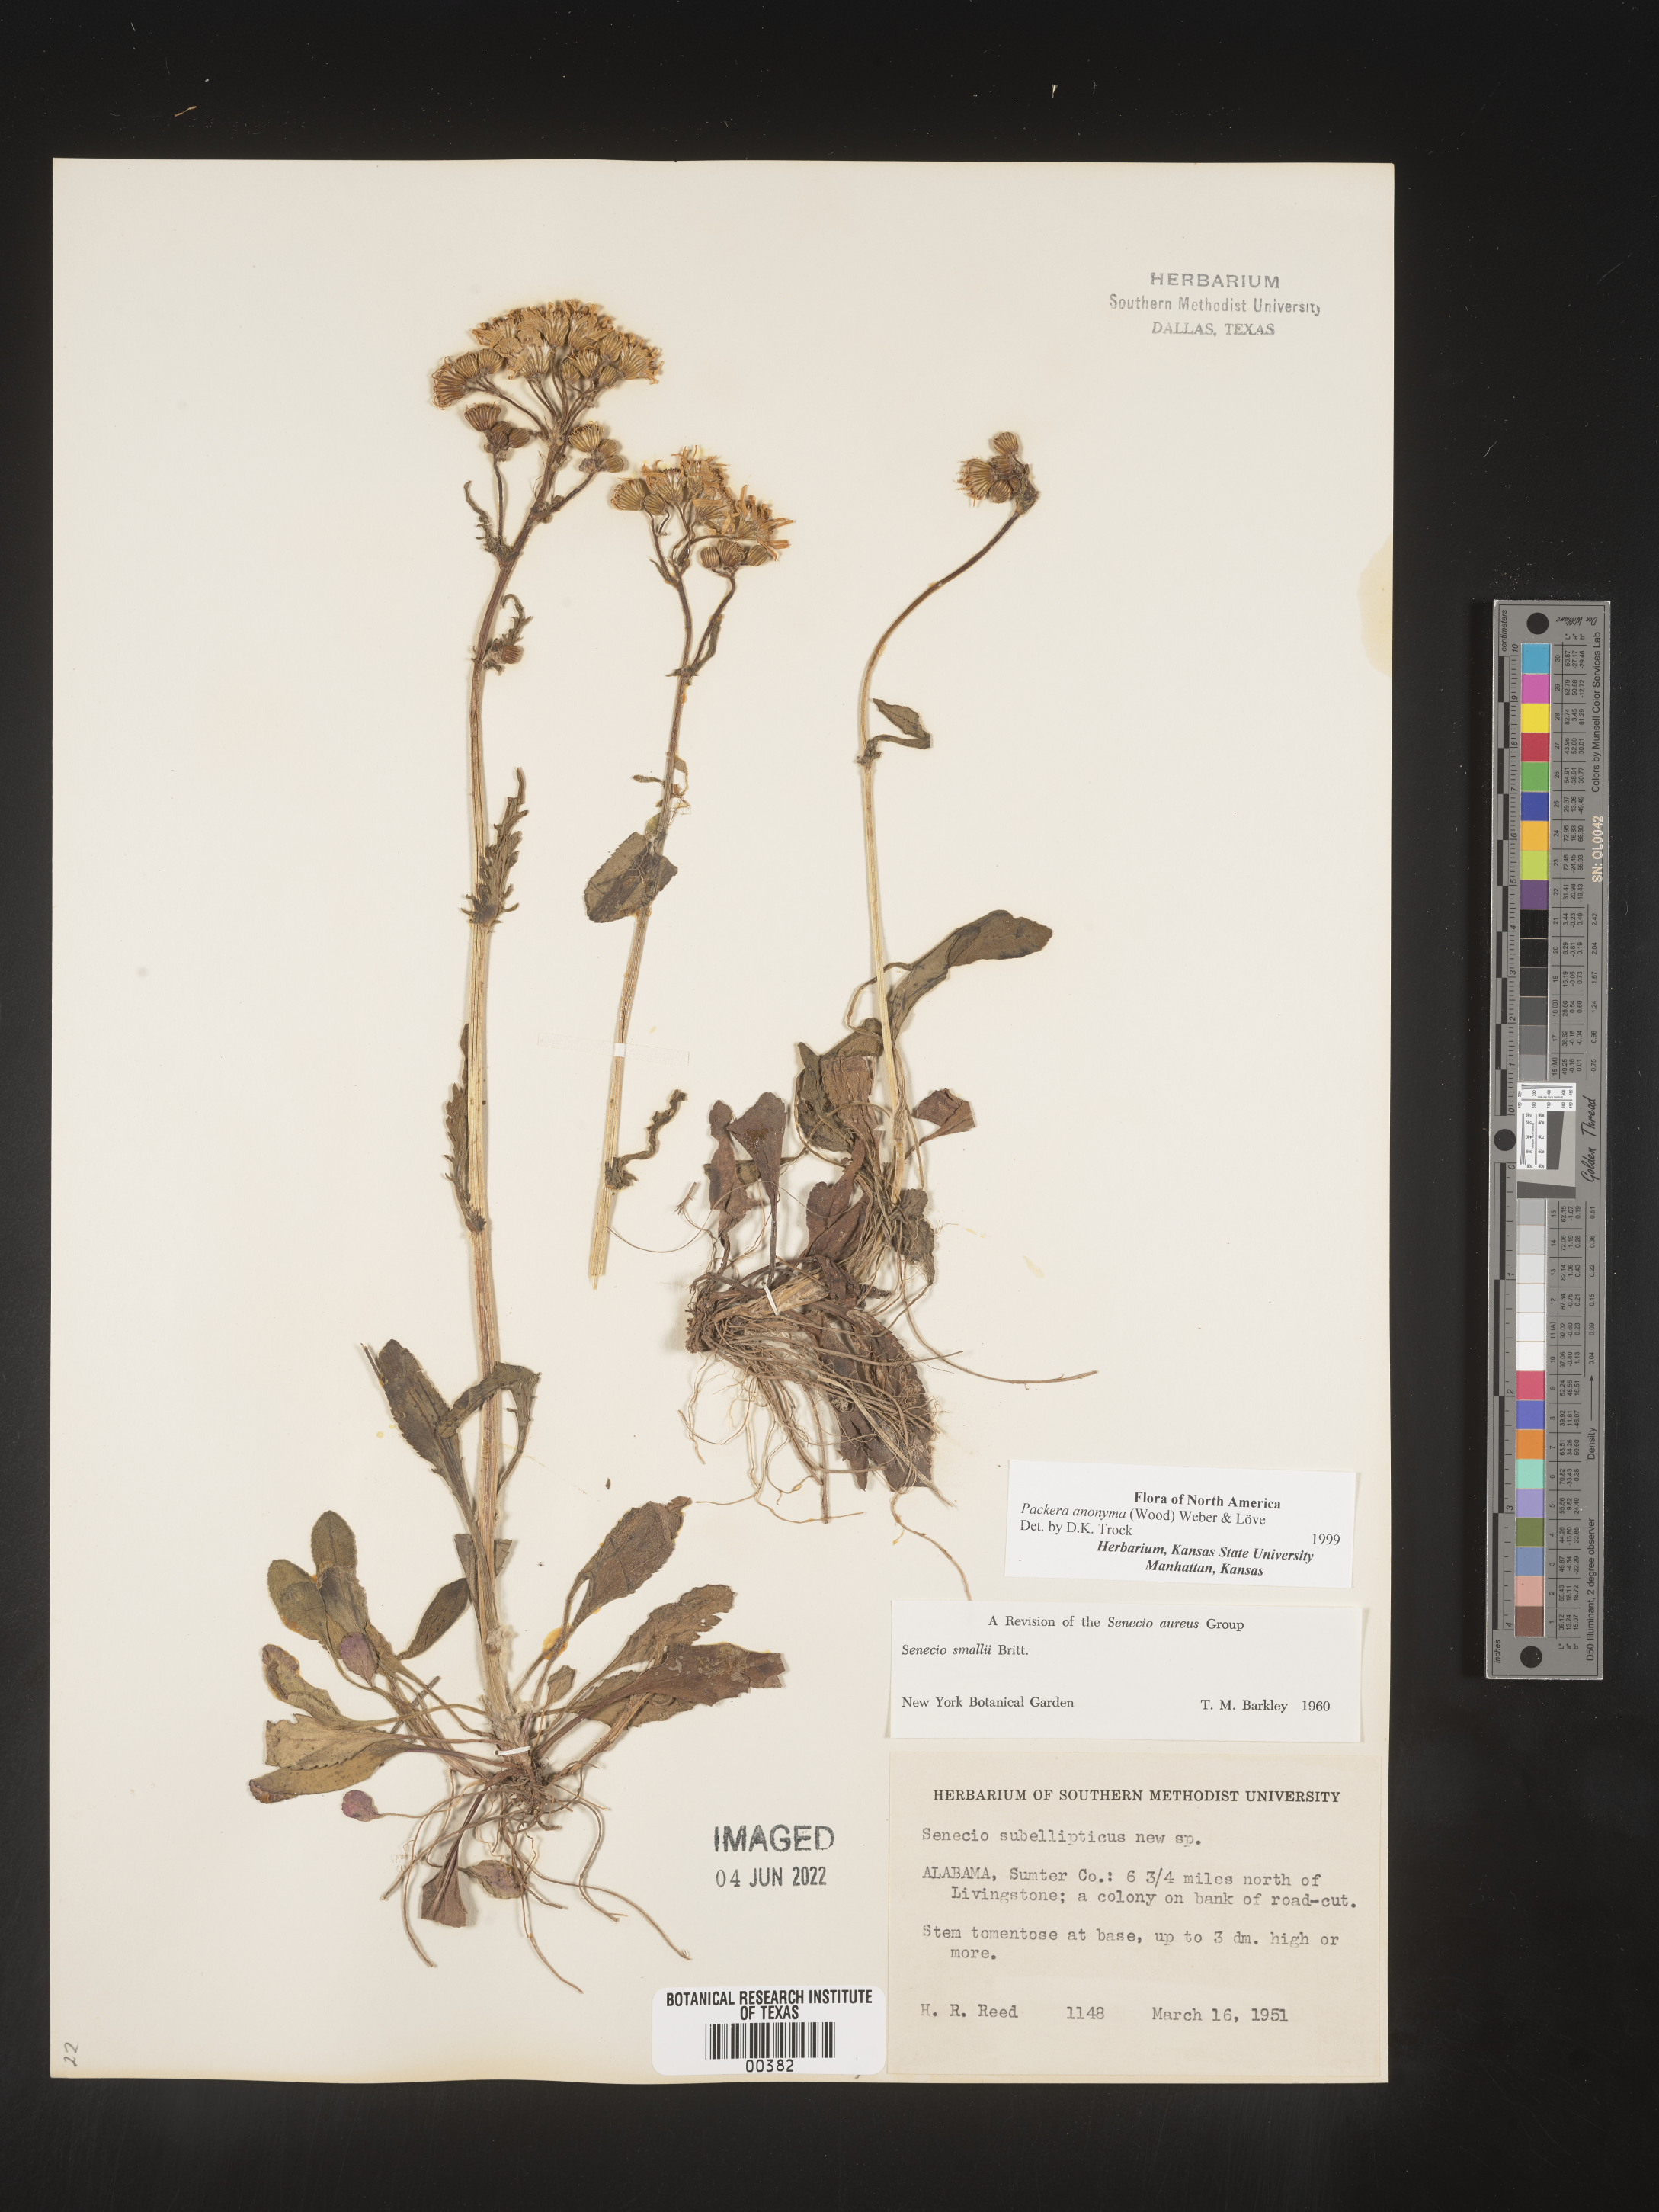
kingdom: Plantae
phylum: Tracheophyta
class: Magnoliopsida
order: Asterales
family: Asteraceae
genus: Packera
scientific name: Packera anonyma
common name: Small ragwort
